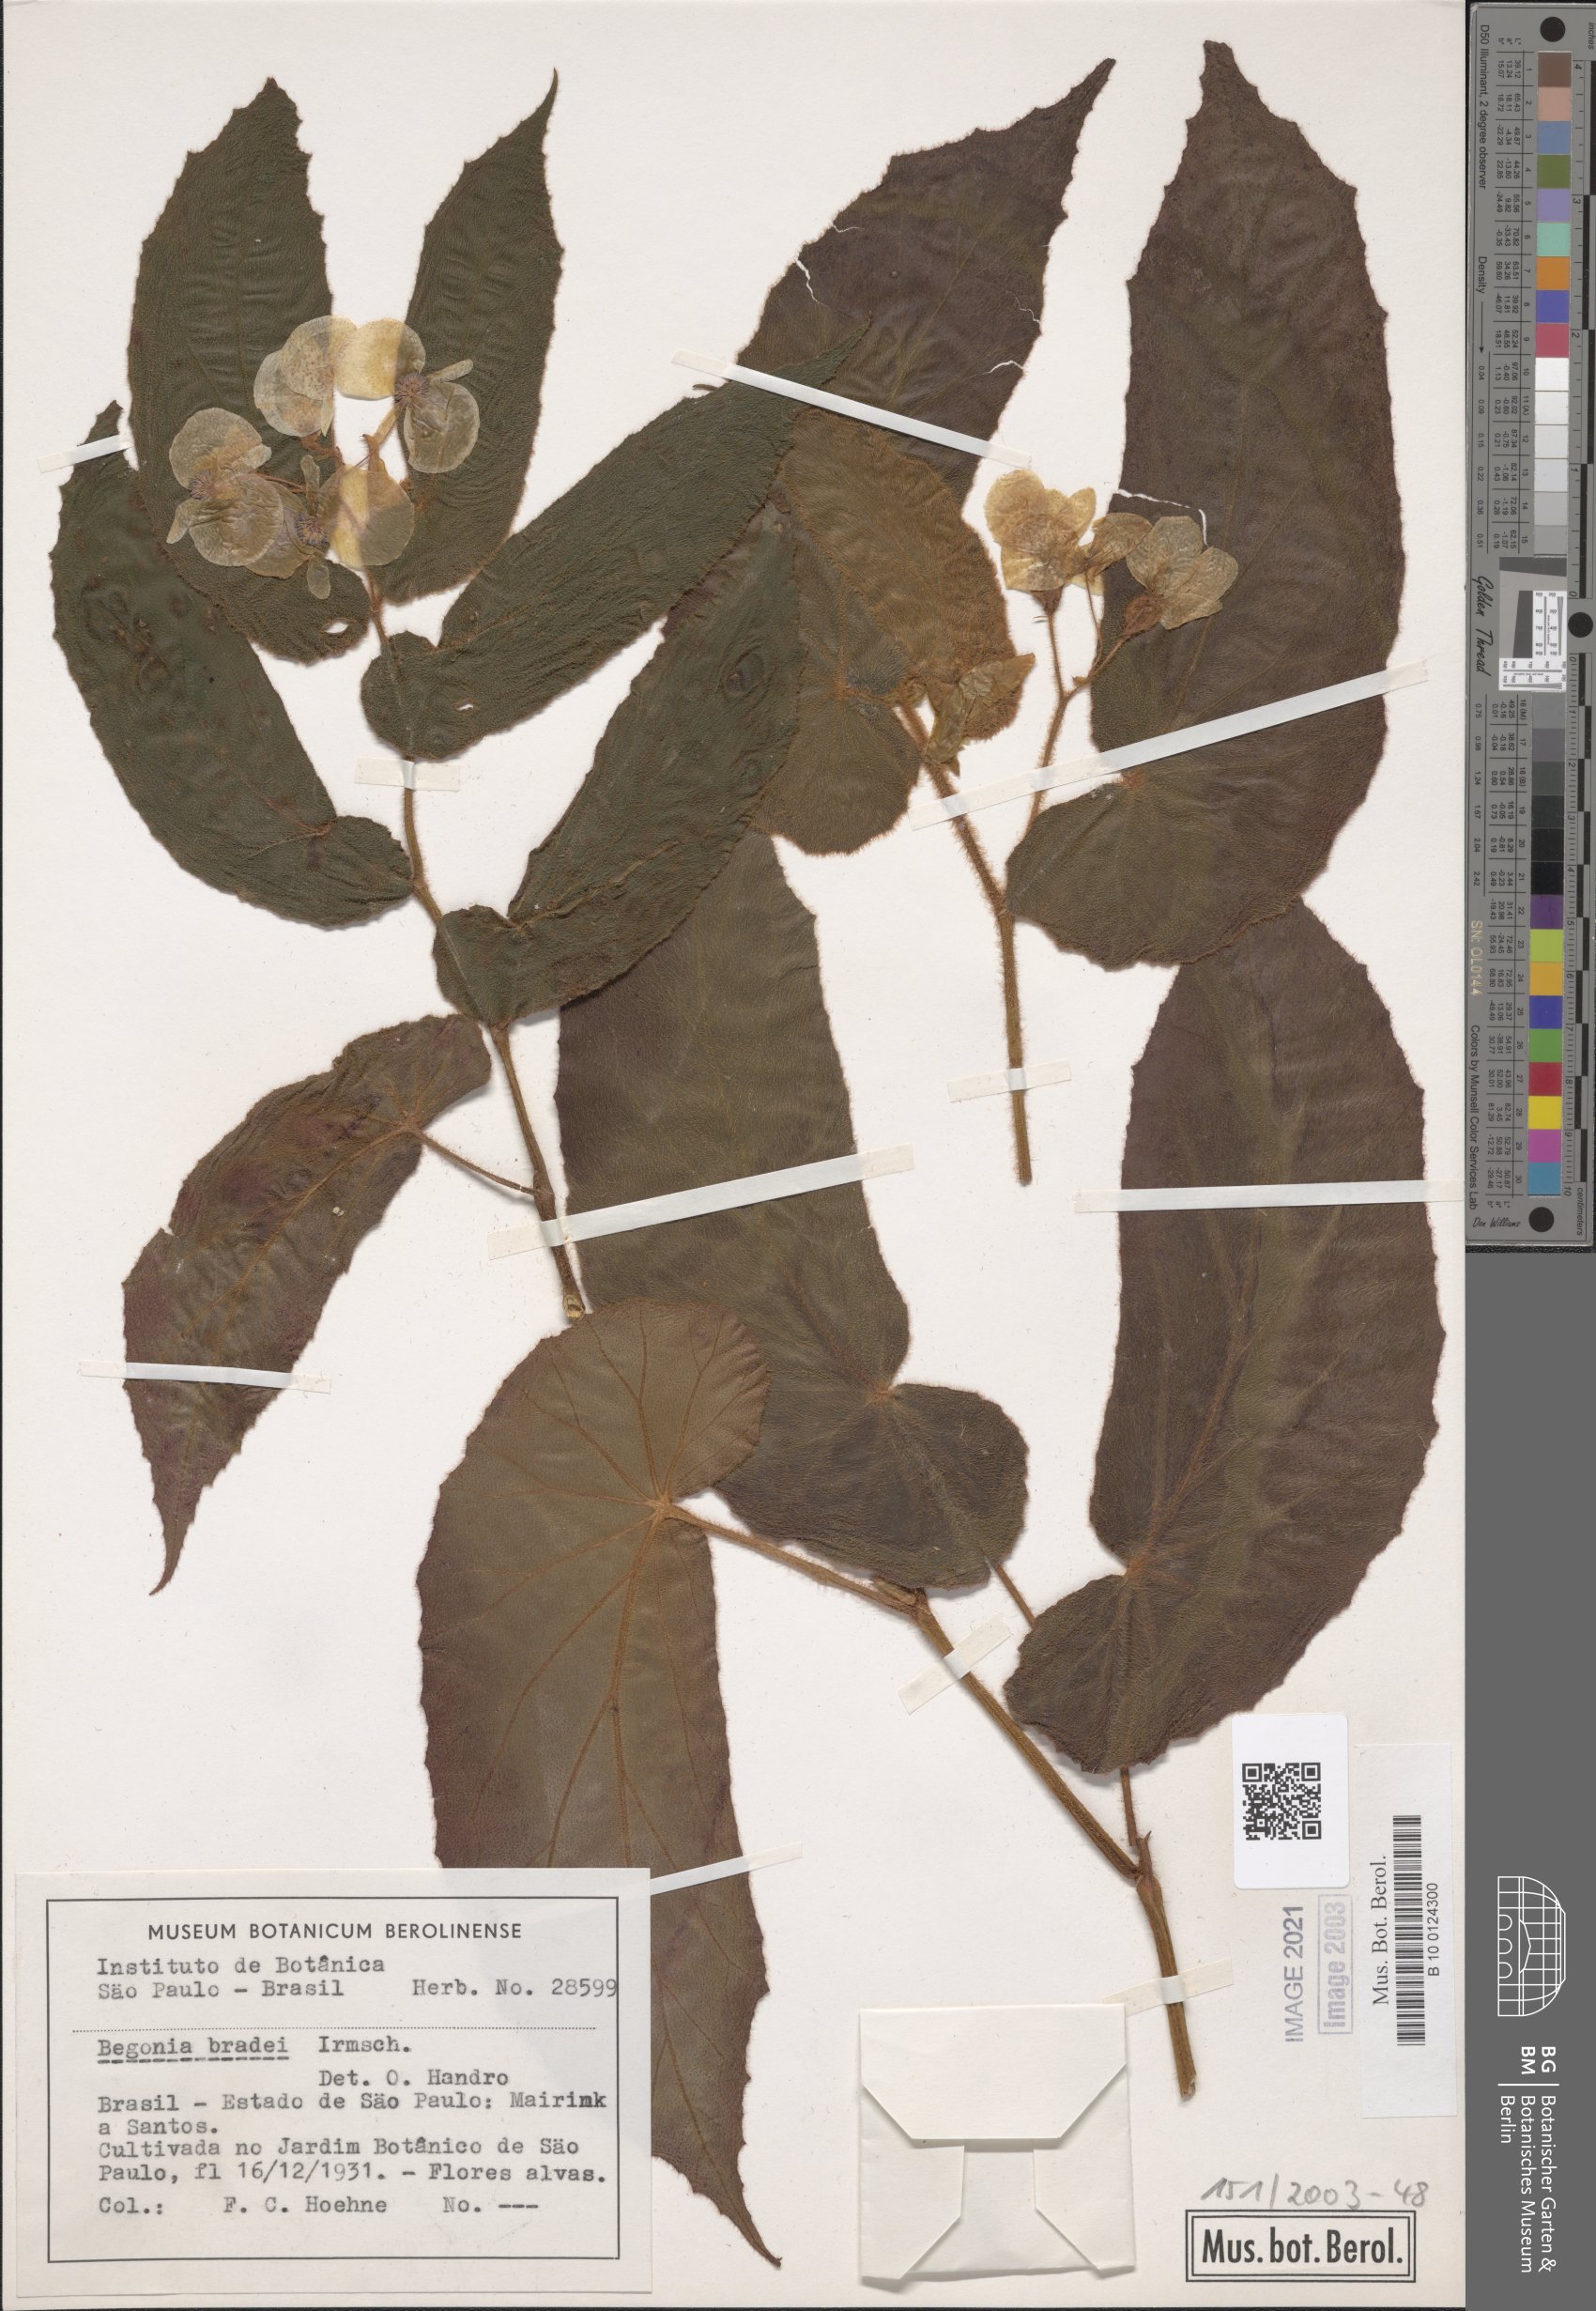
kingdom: Plantae
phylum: Tracheophyta
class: Magnoliopsida
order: Cucurbitales
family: Begoniaceae
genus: Begonia
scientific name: Begonia bradei
